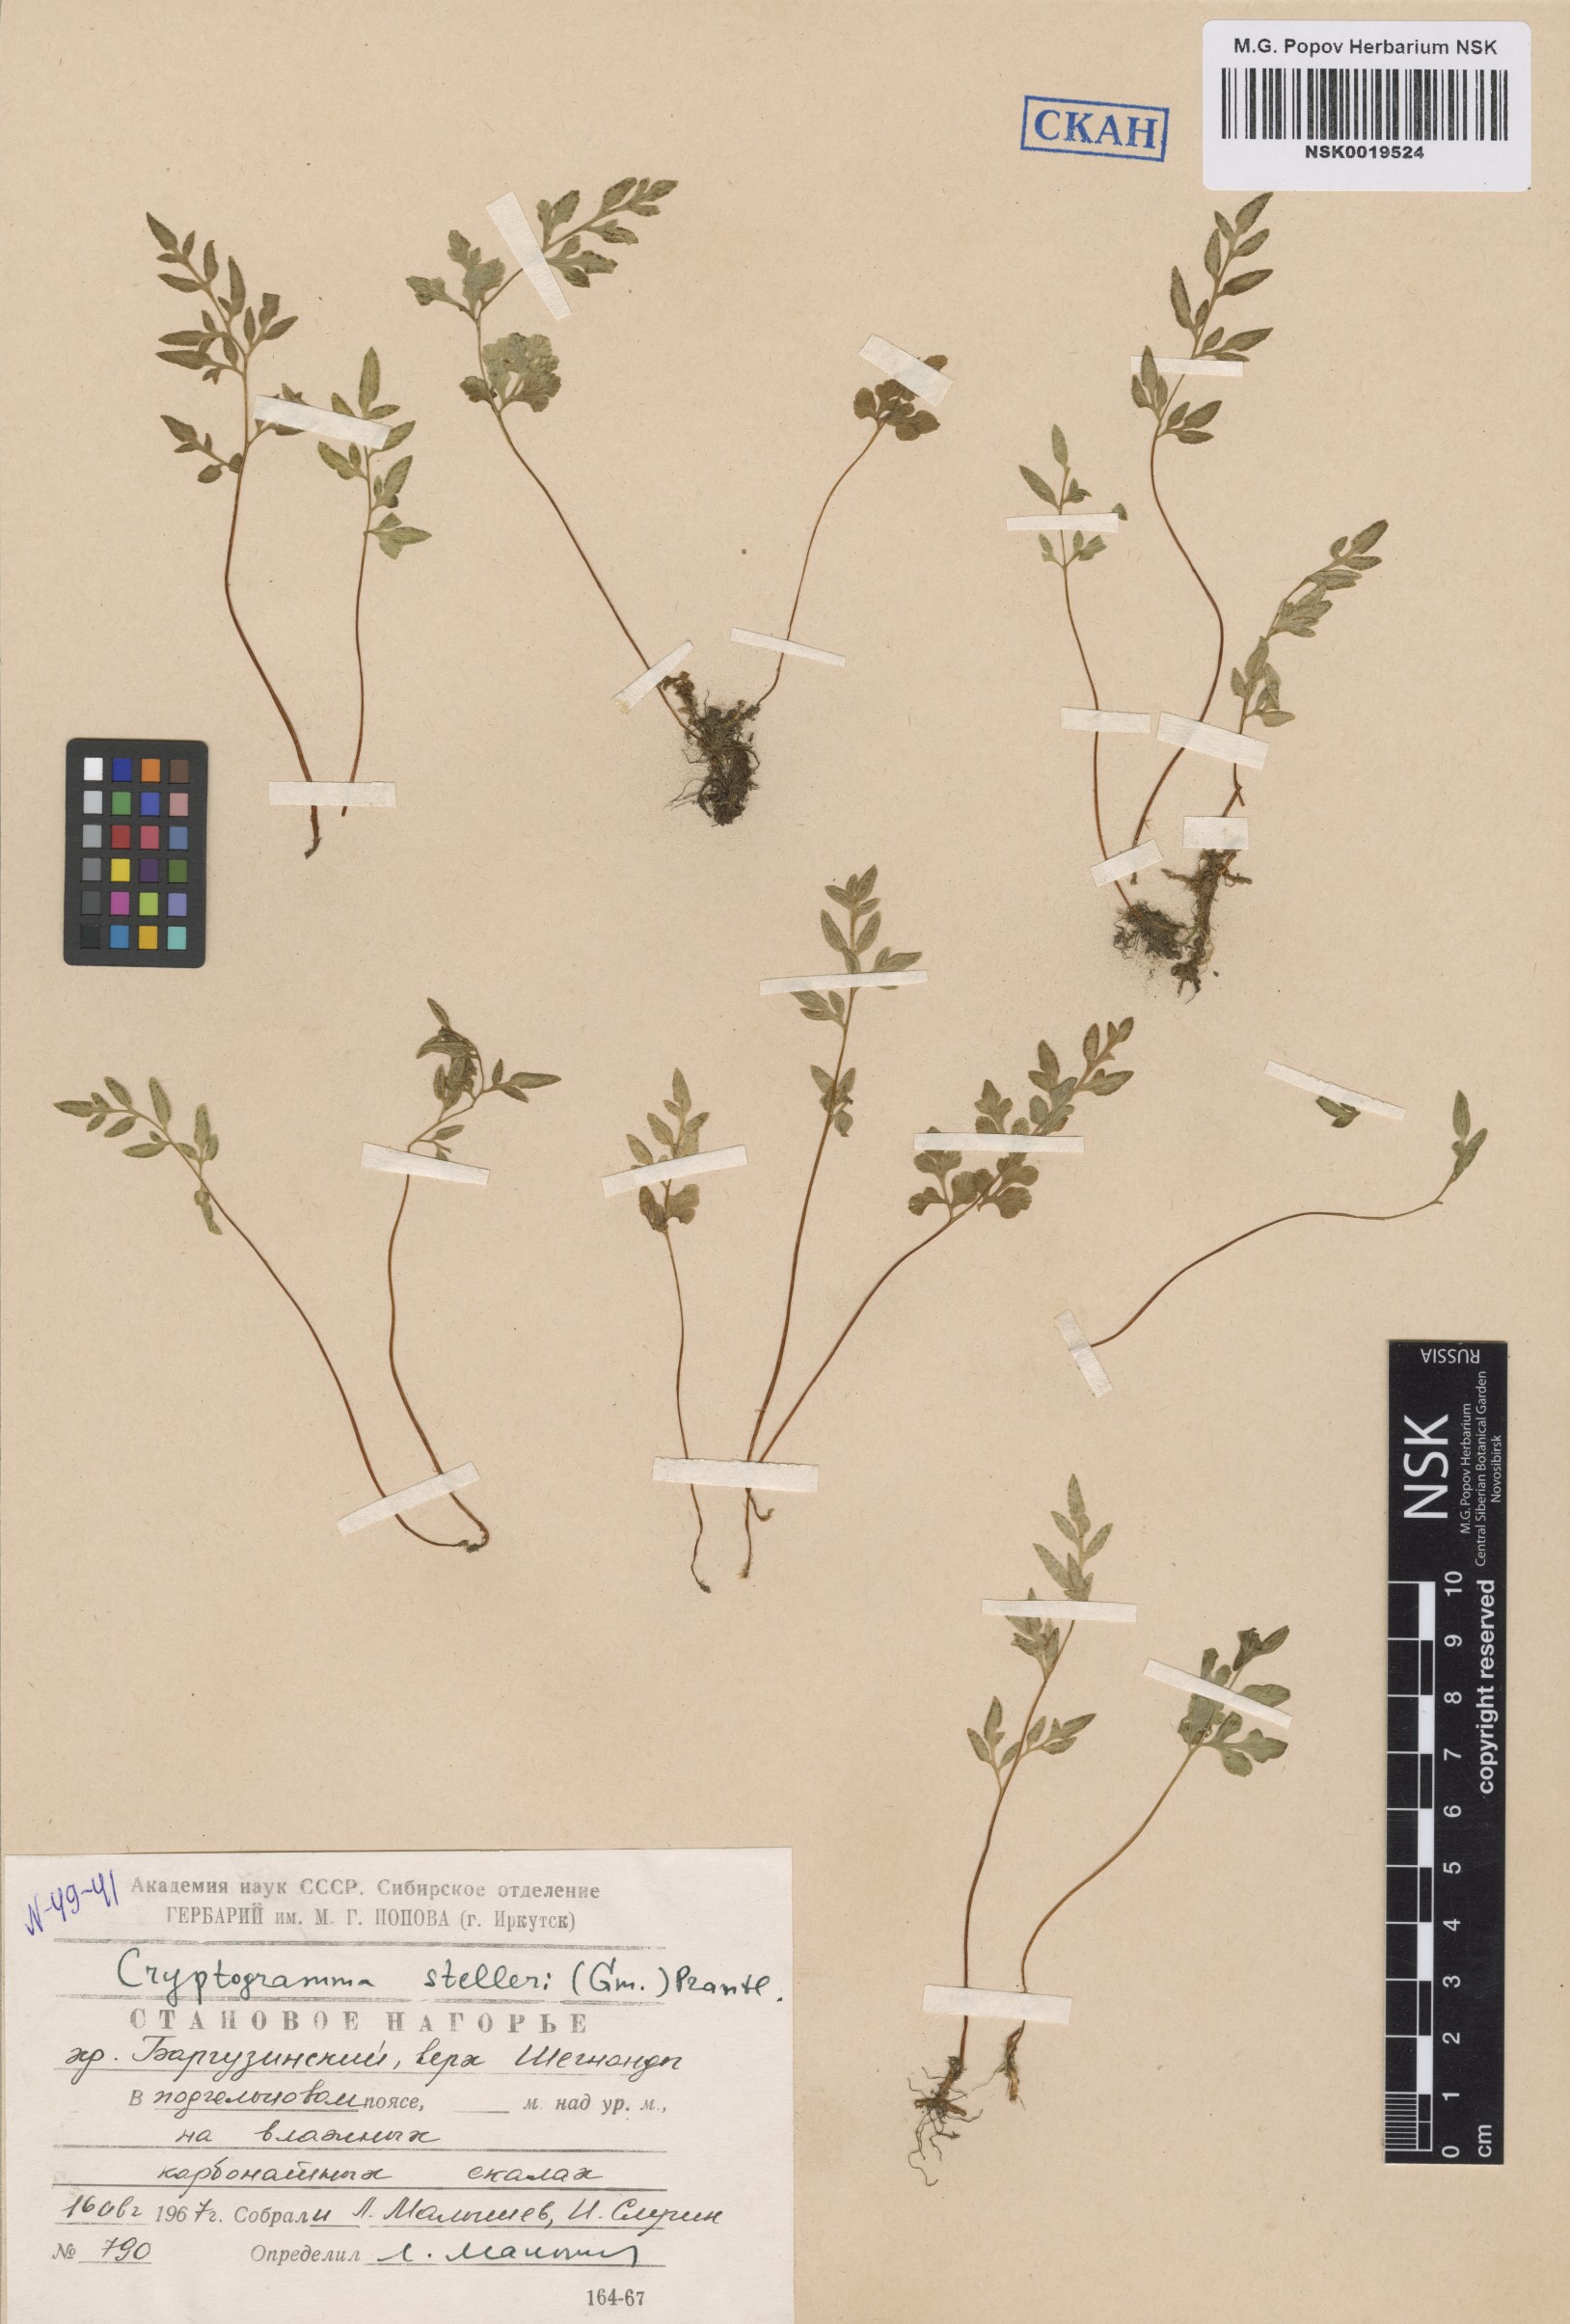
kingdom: Plantae
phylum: Tracheophyta
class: Polypodiopsida
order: Polypodiales
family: Pteridaceae
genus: Cryptogramma
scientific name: Cryptogramma stelleri
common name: Cliff-brake
